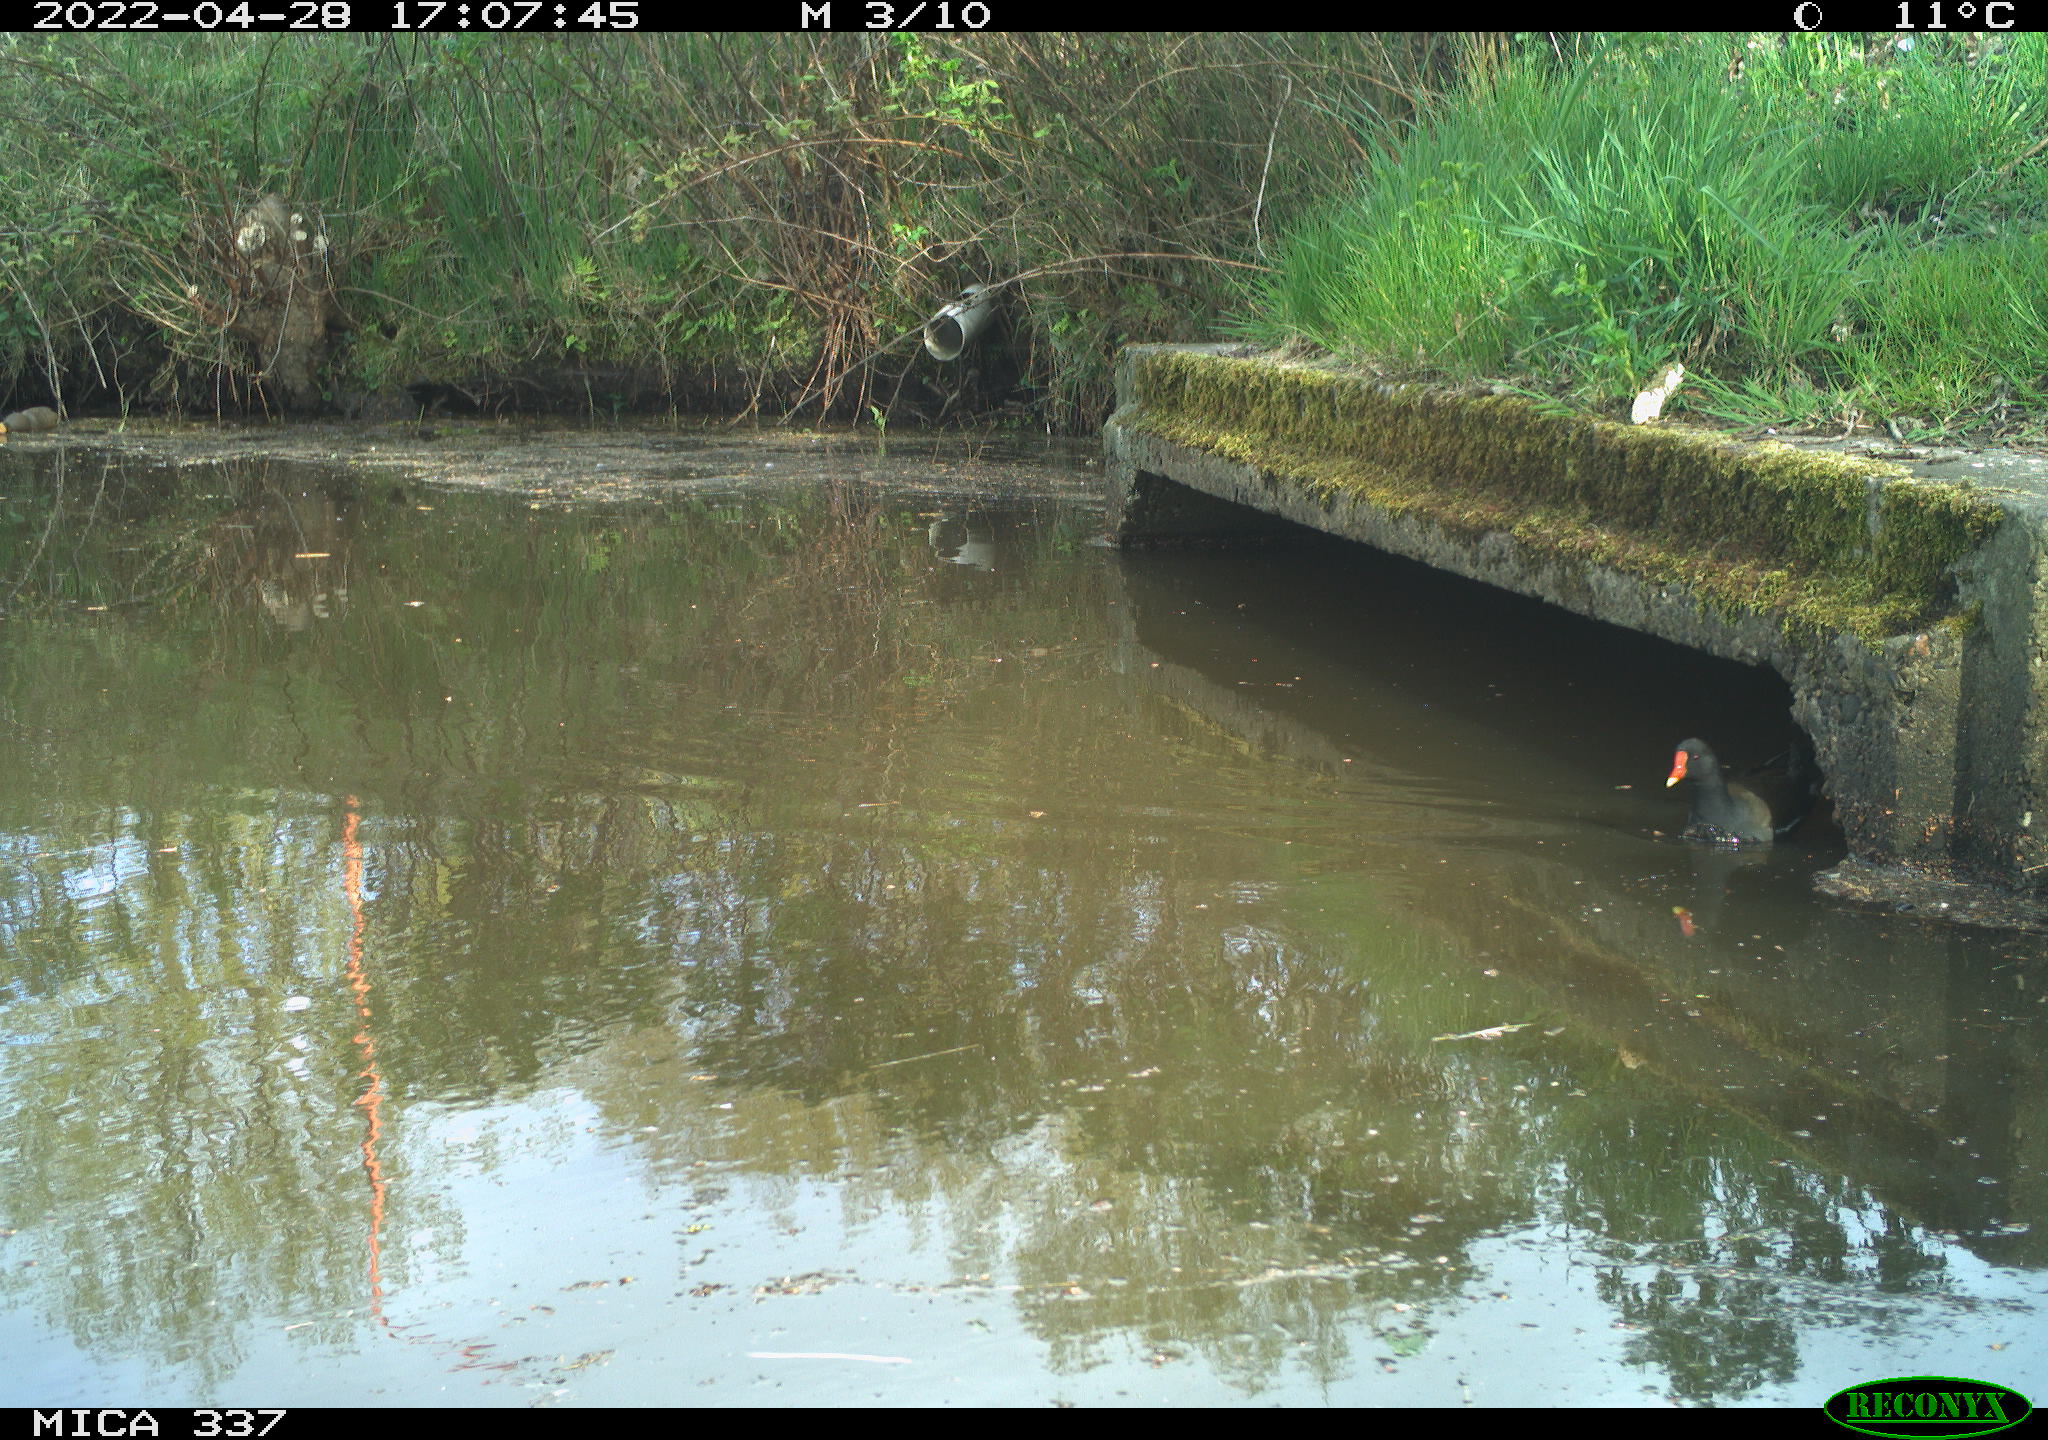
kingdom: Animalia
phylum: Chordata
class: Aves
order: Gruiformes
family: Rallidae
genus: Gallinula
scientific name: Gallinula chloropus
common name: Common moorhen
